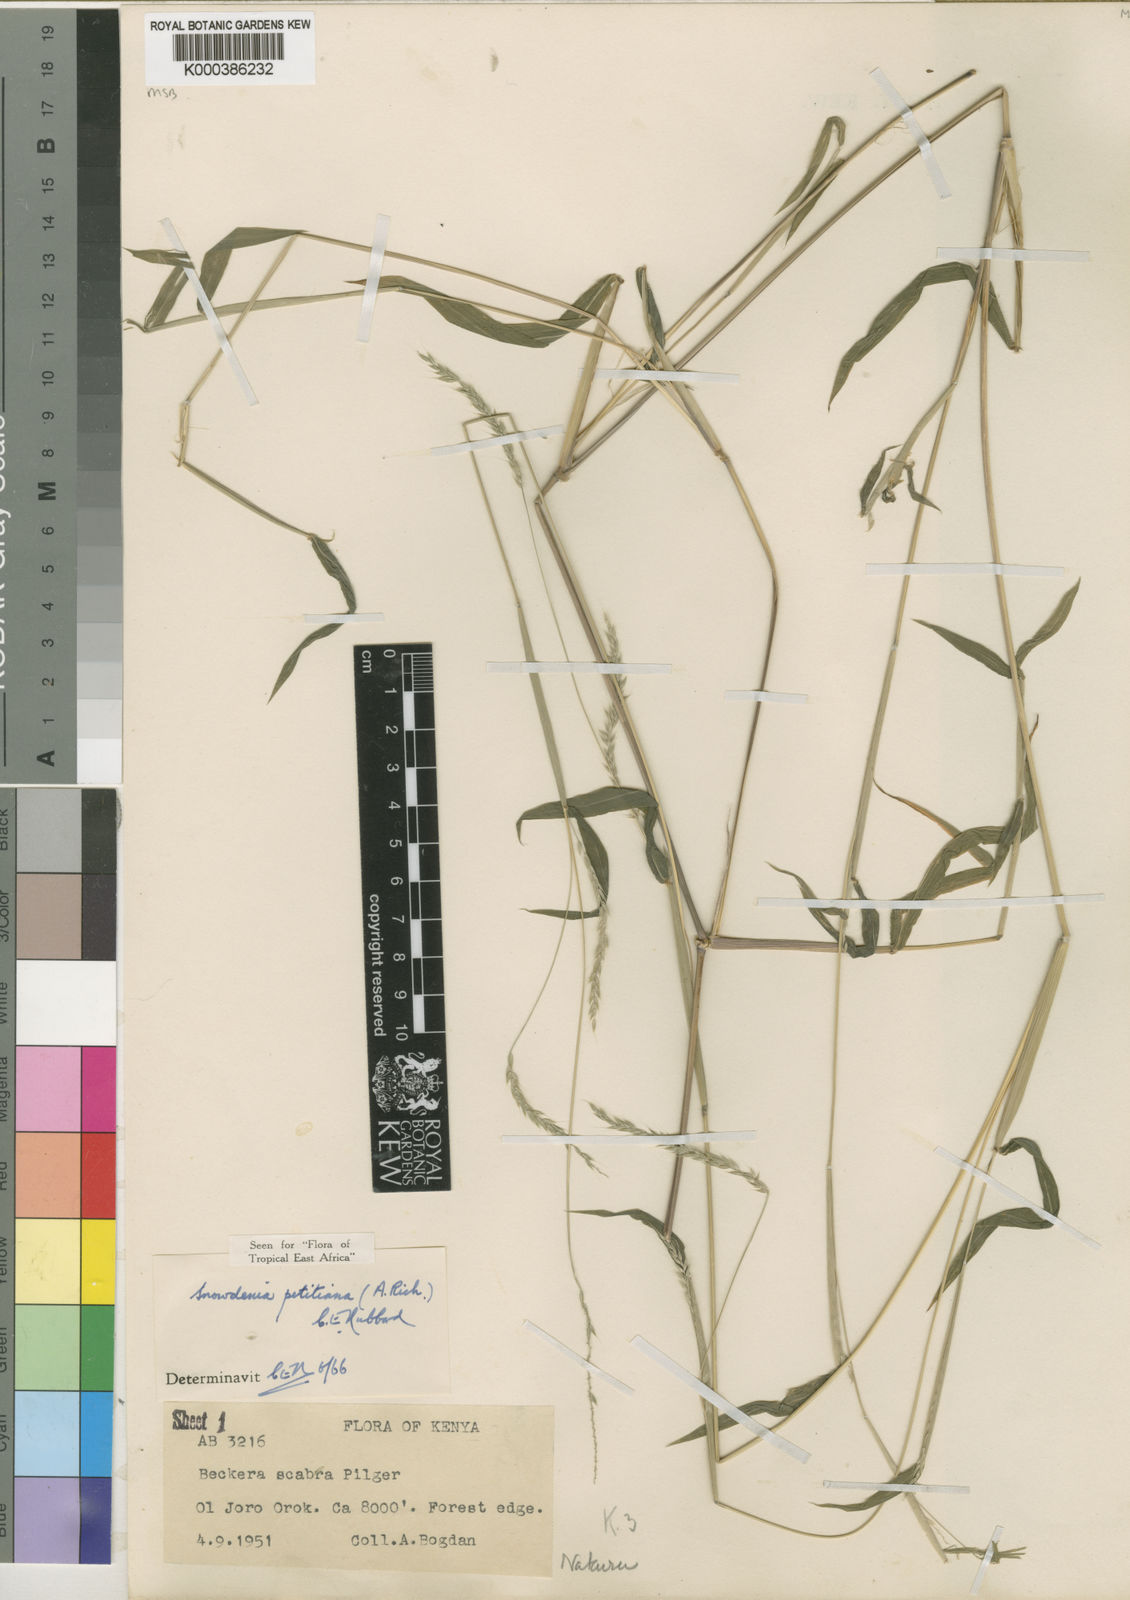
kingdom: Plantae
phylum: Tracheophyta
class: Liliopsida
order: Poales
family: Poaceae
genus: Snowdenia
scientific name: Snowdenia petitiana
